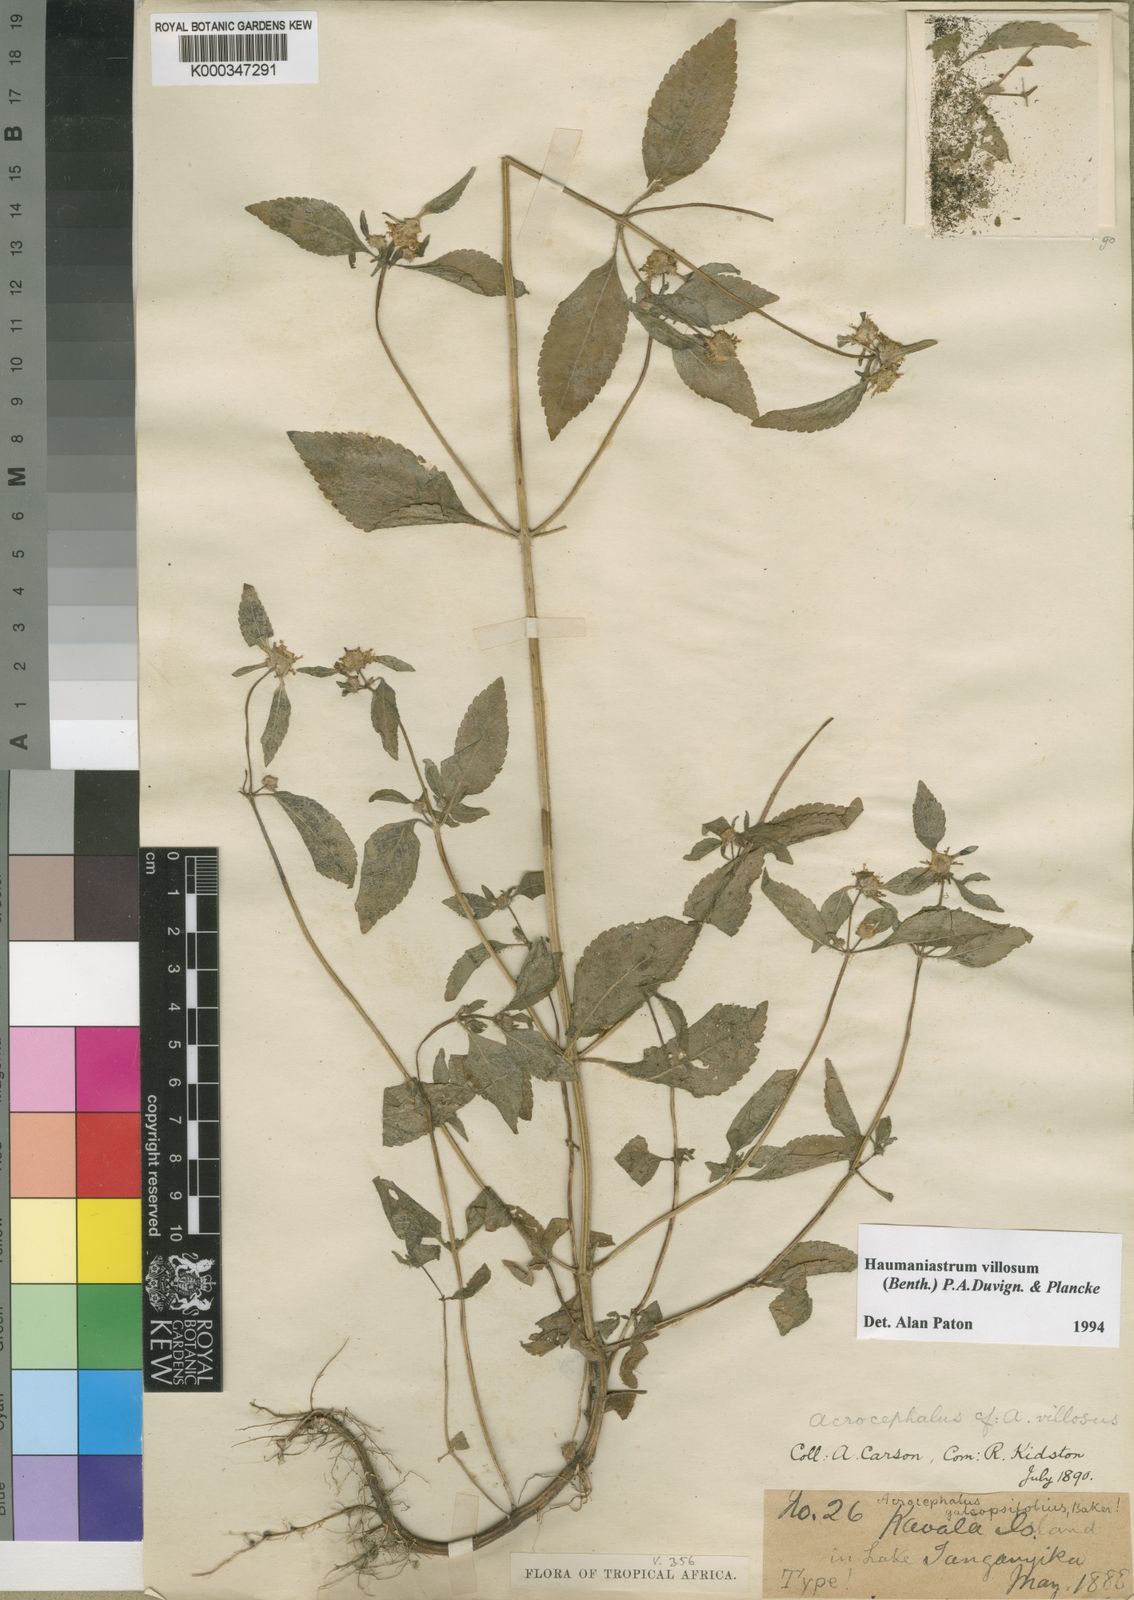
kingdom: Plantae
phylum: Tracheophyta
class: Magnoliopsida
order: Lamiales
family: Lamiaceae
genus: Haumaniastrum
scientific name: Haumaniastrum villosum
